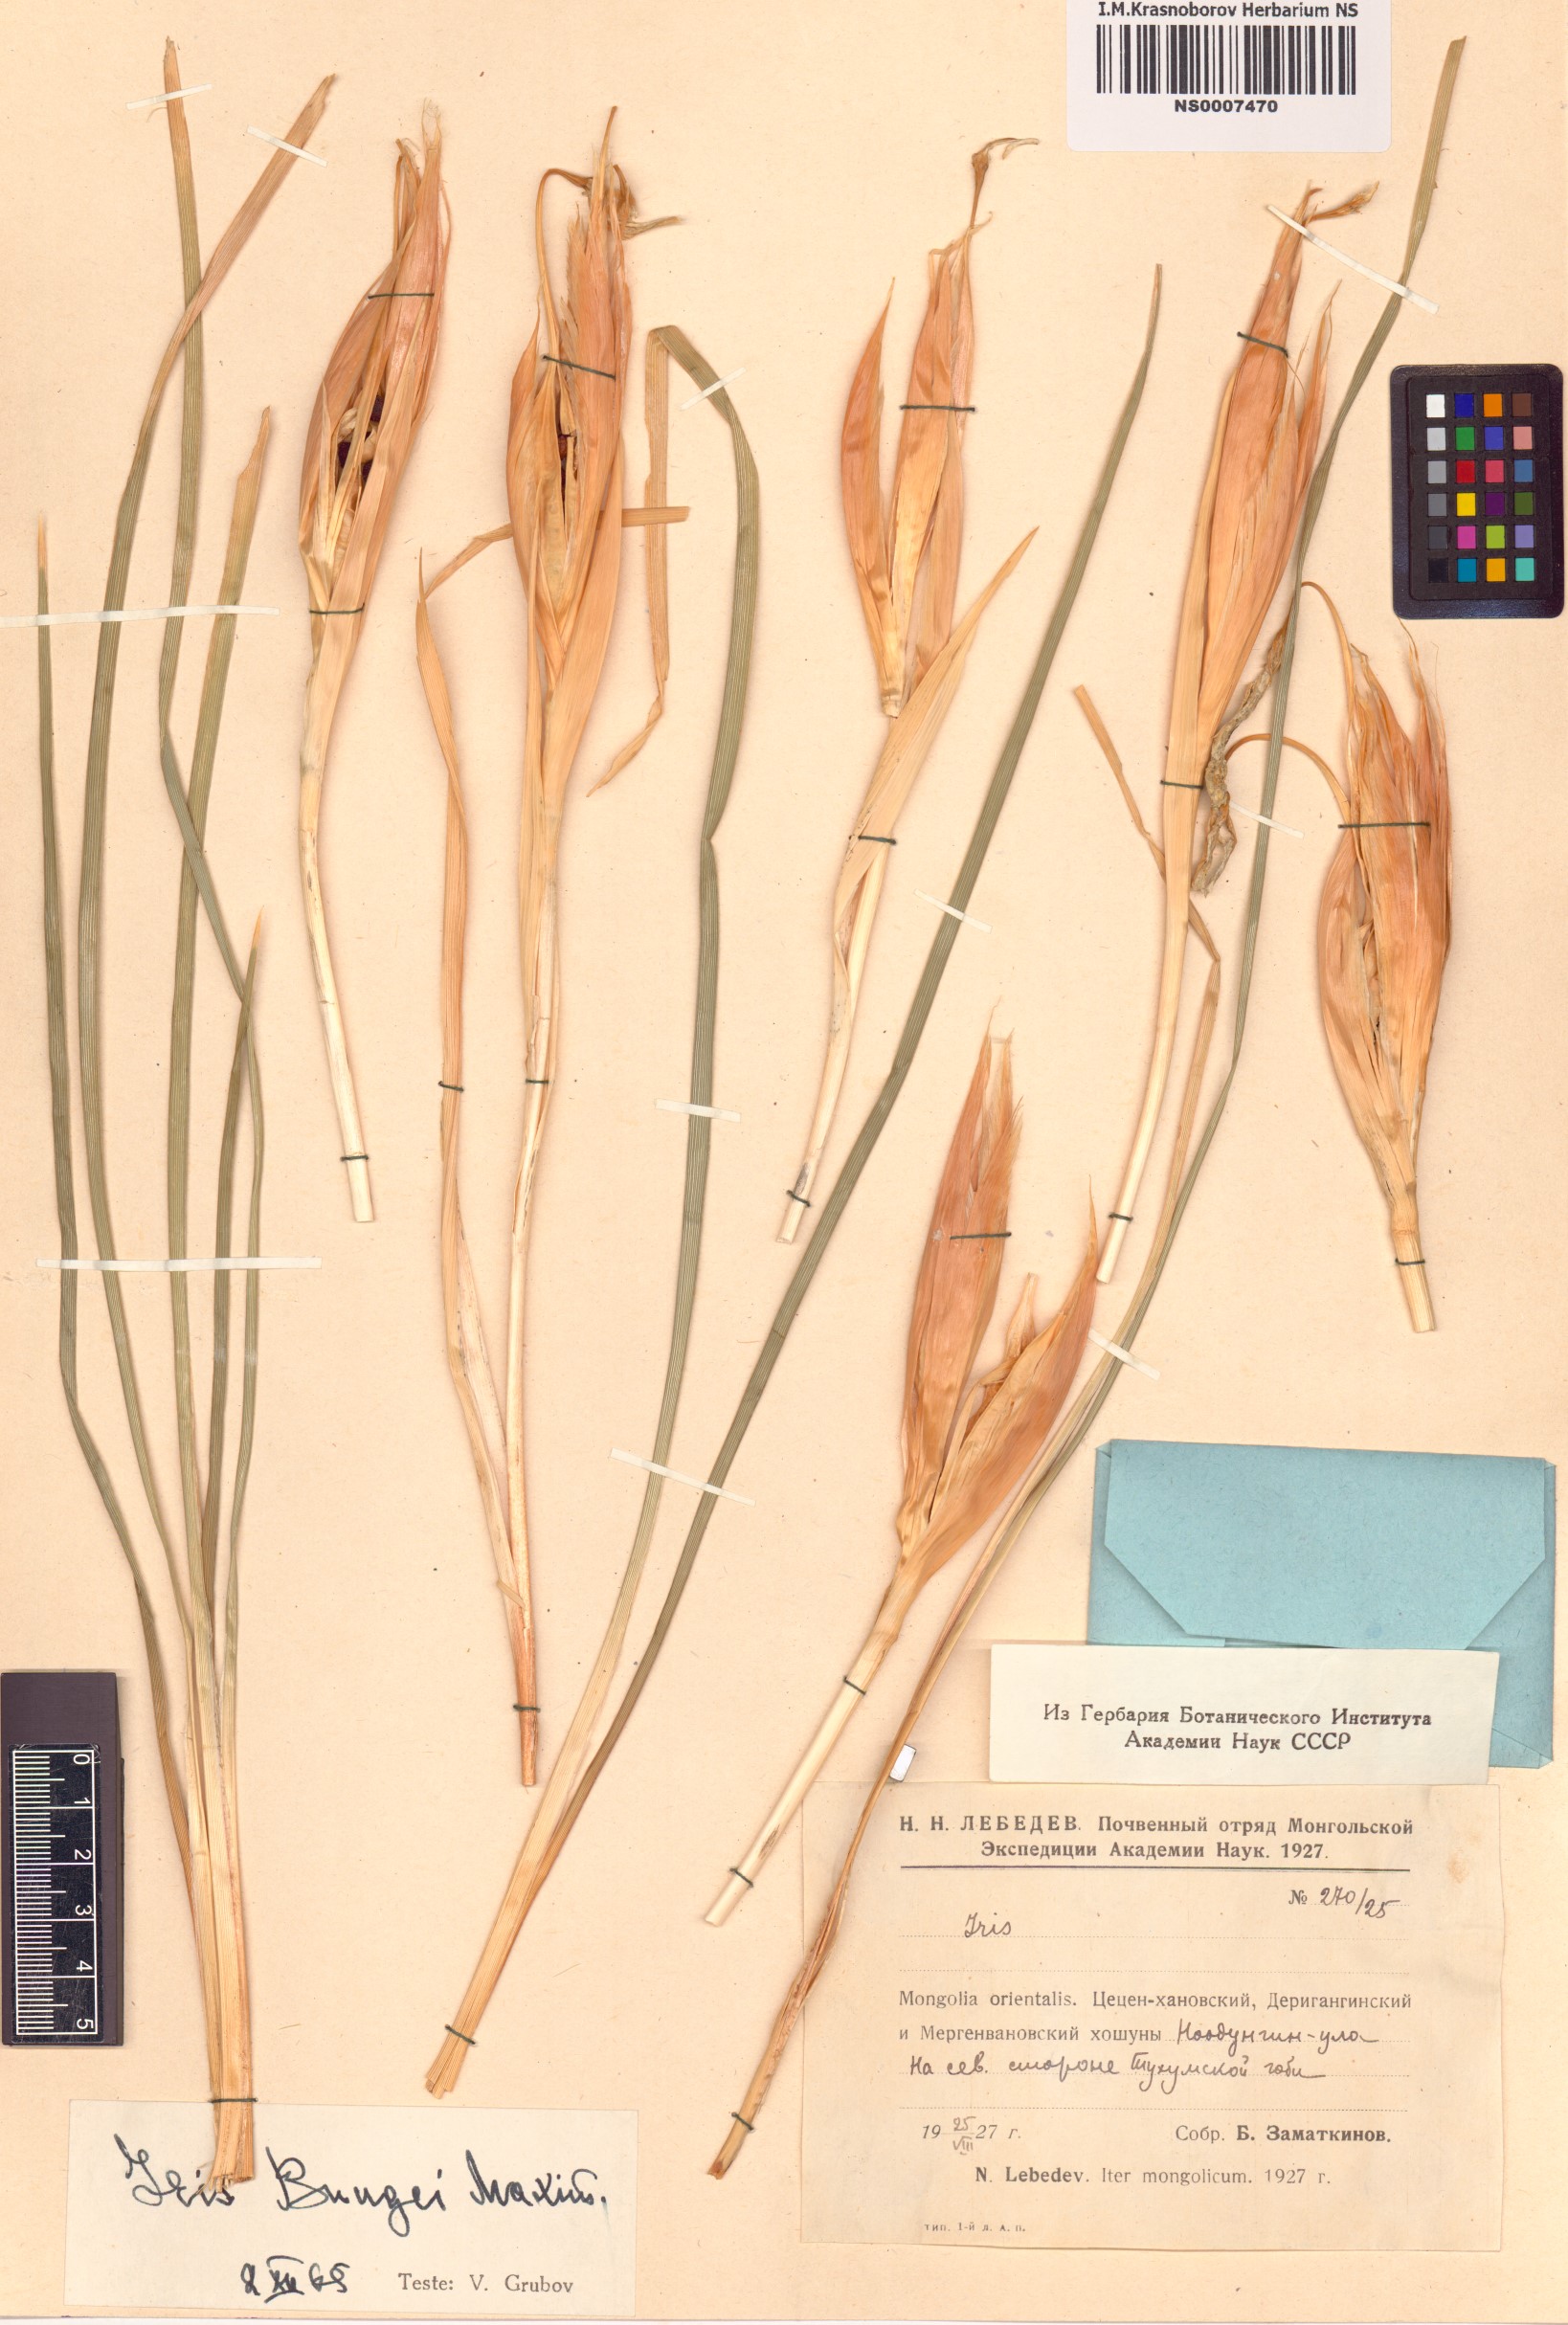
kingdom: Plantae
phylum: Tracheophyta
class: Liliopsida
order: Asparagales
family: Iridaceae
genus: Iris
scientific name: Iris bungei
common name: Large-bract iris
